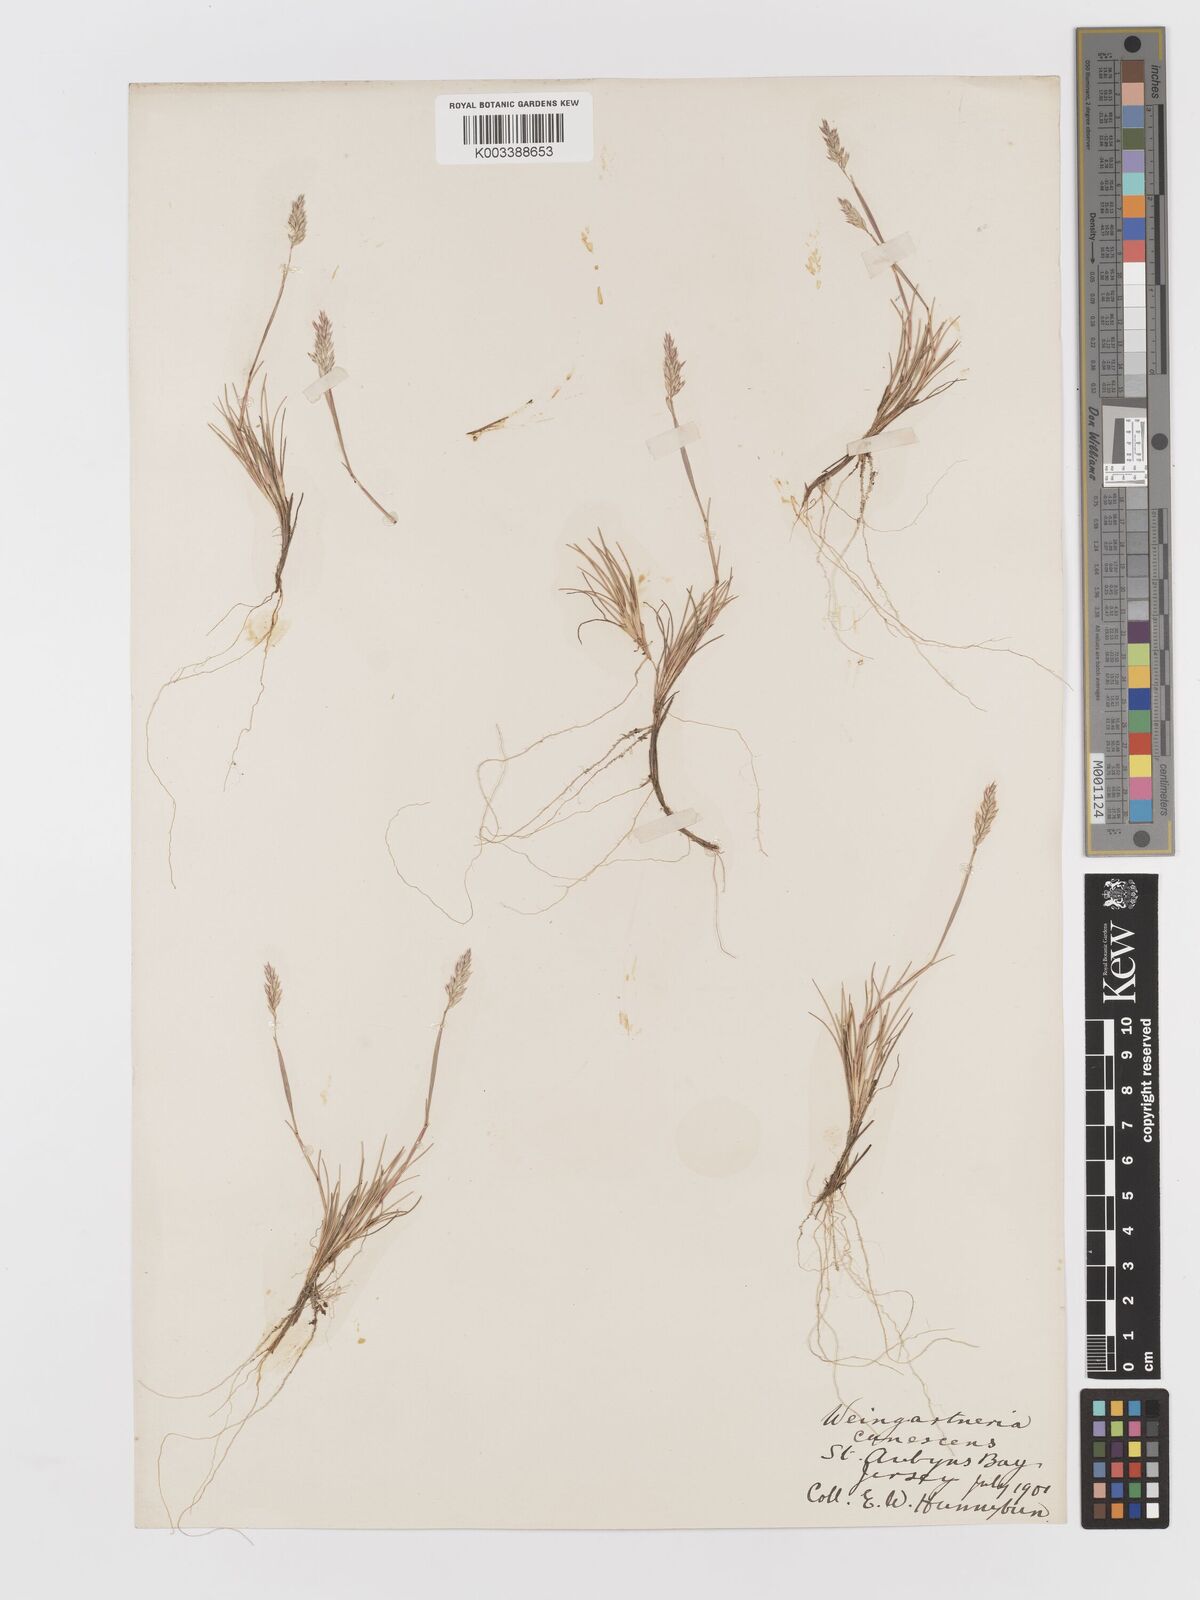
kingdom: Plantae
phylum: Tracheophyta
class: Liliopsida
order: Poales
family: Poaceae
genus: Corynephorus
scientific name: Corynephorus canescens
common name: Grey hair-grass
